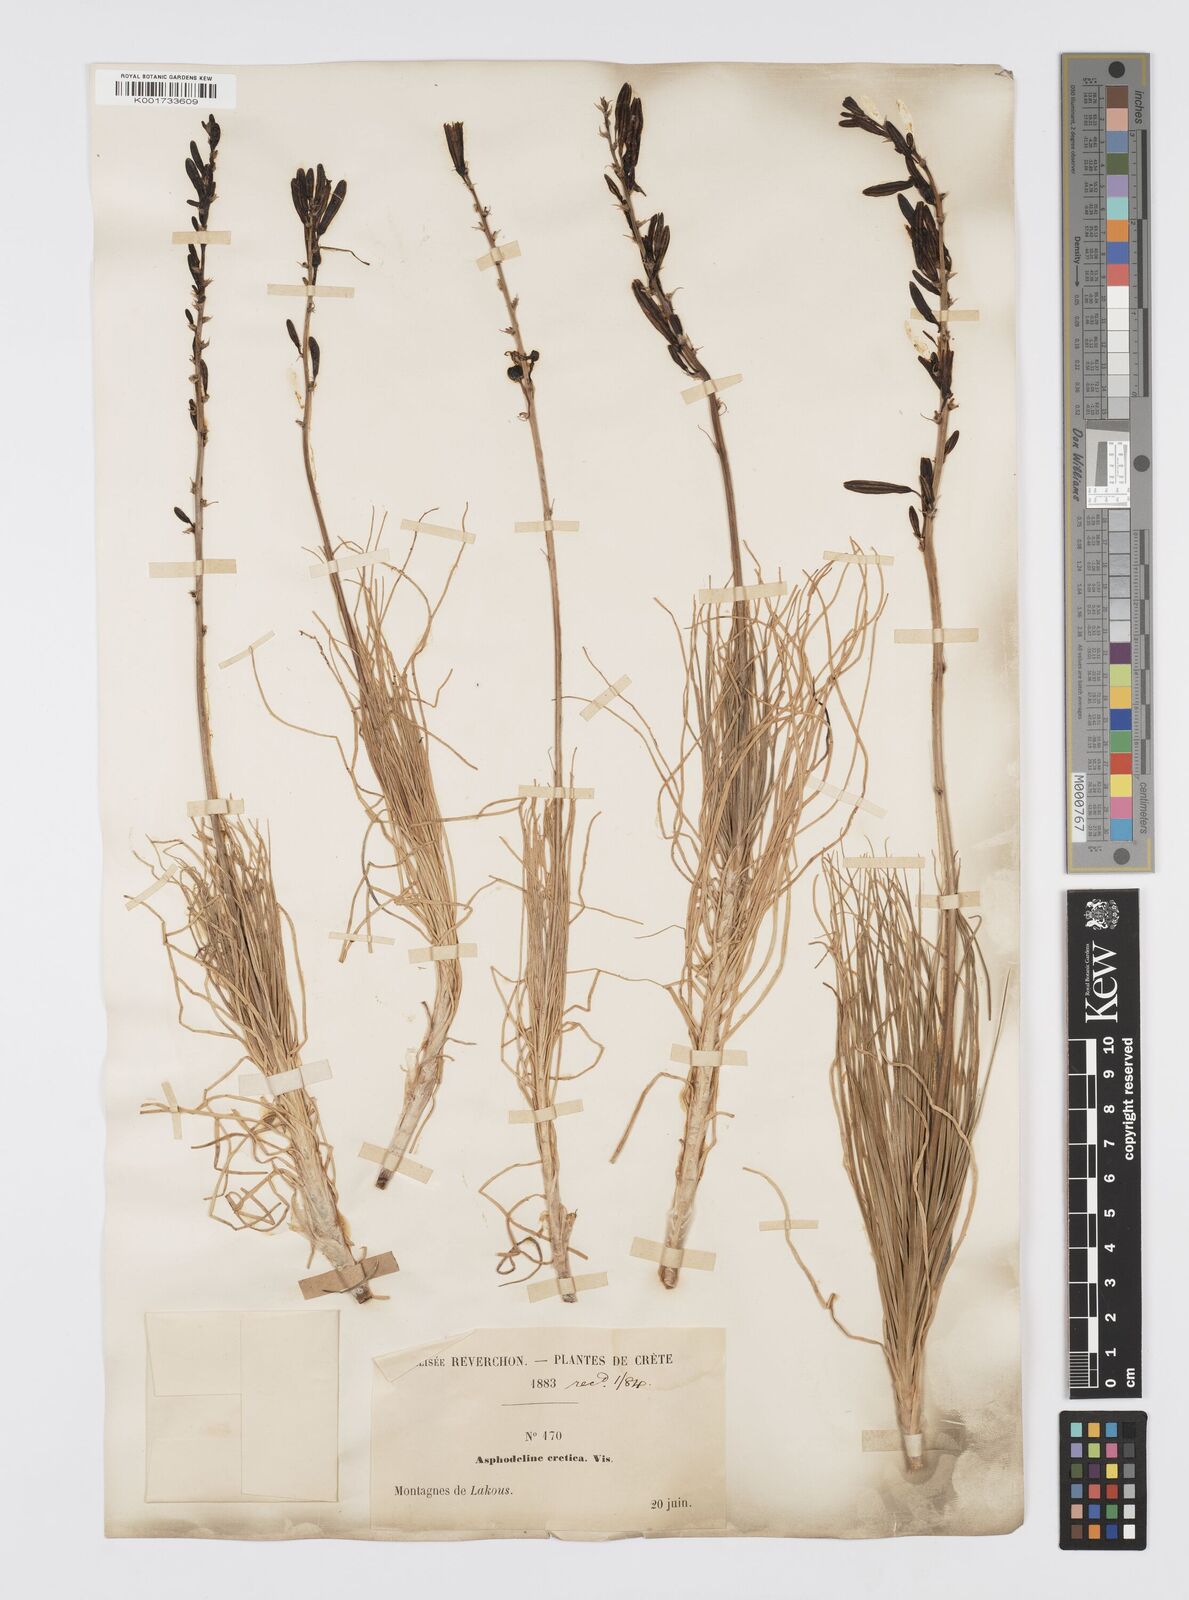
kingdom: Plantae
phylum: Tracheophyta
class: Liliopsida
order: Asparagales
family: Asphodelaceae
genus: Asphodeline
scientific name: Asphodeline liburnica
